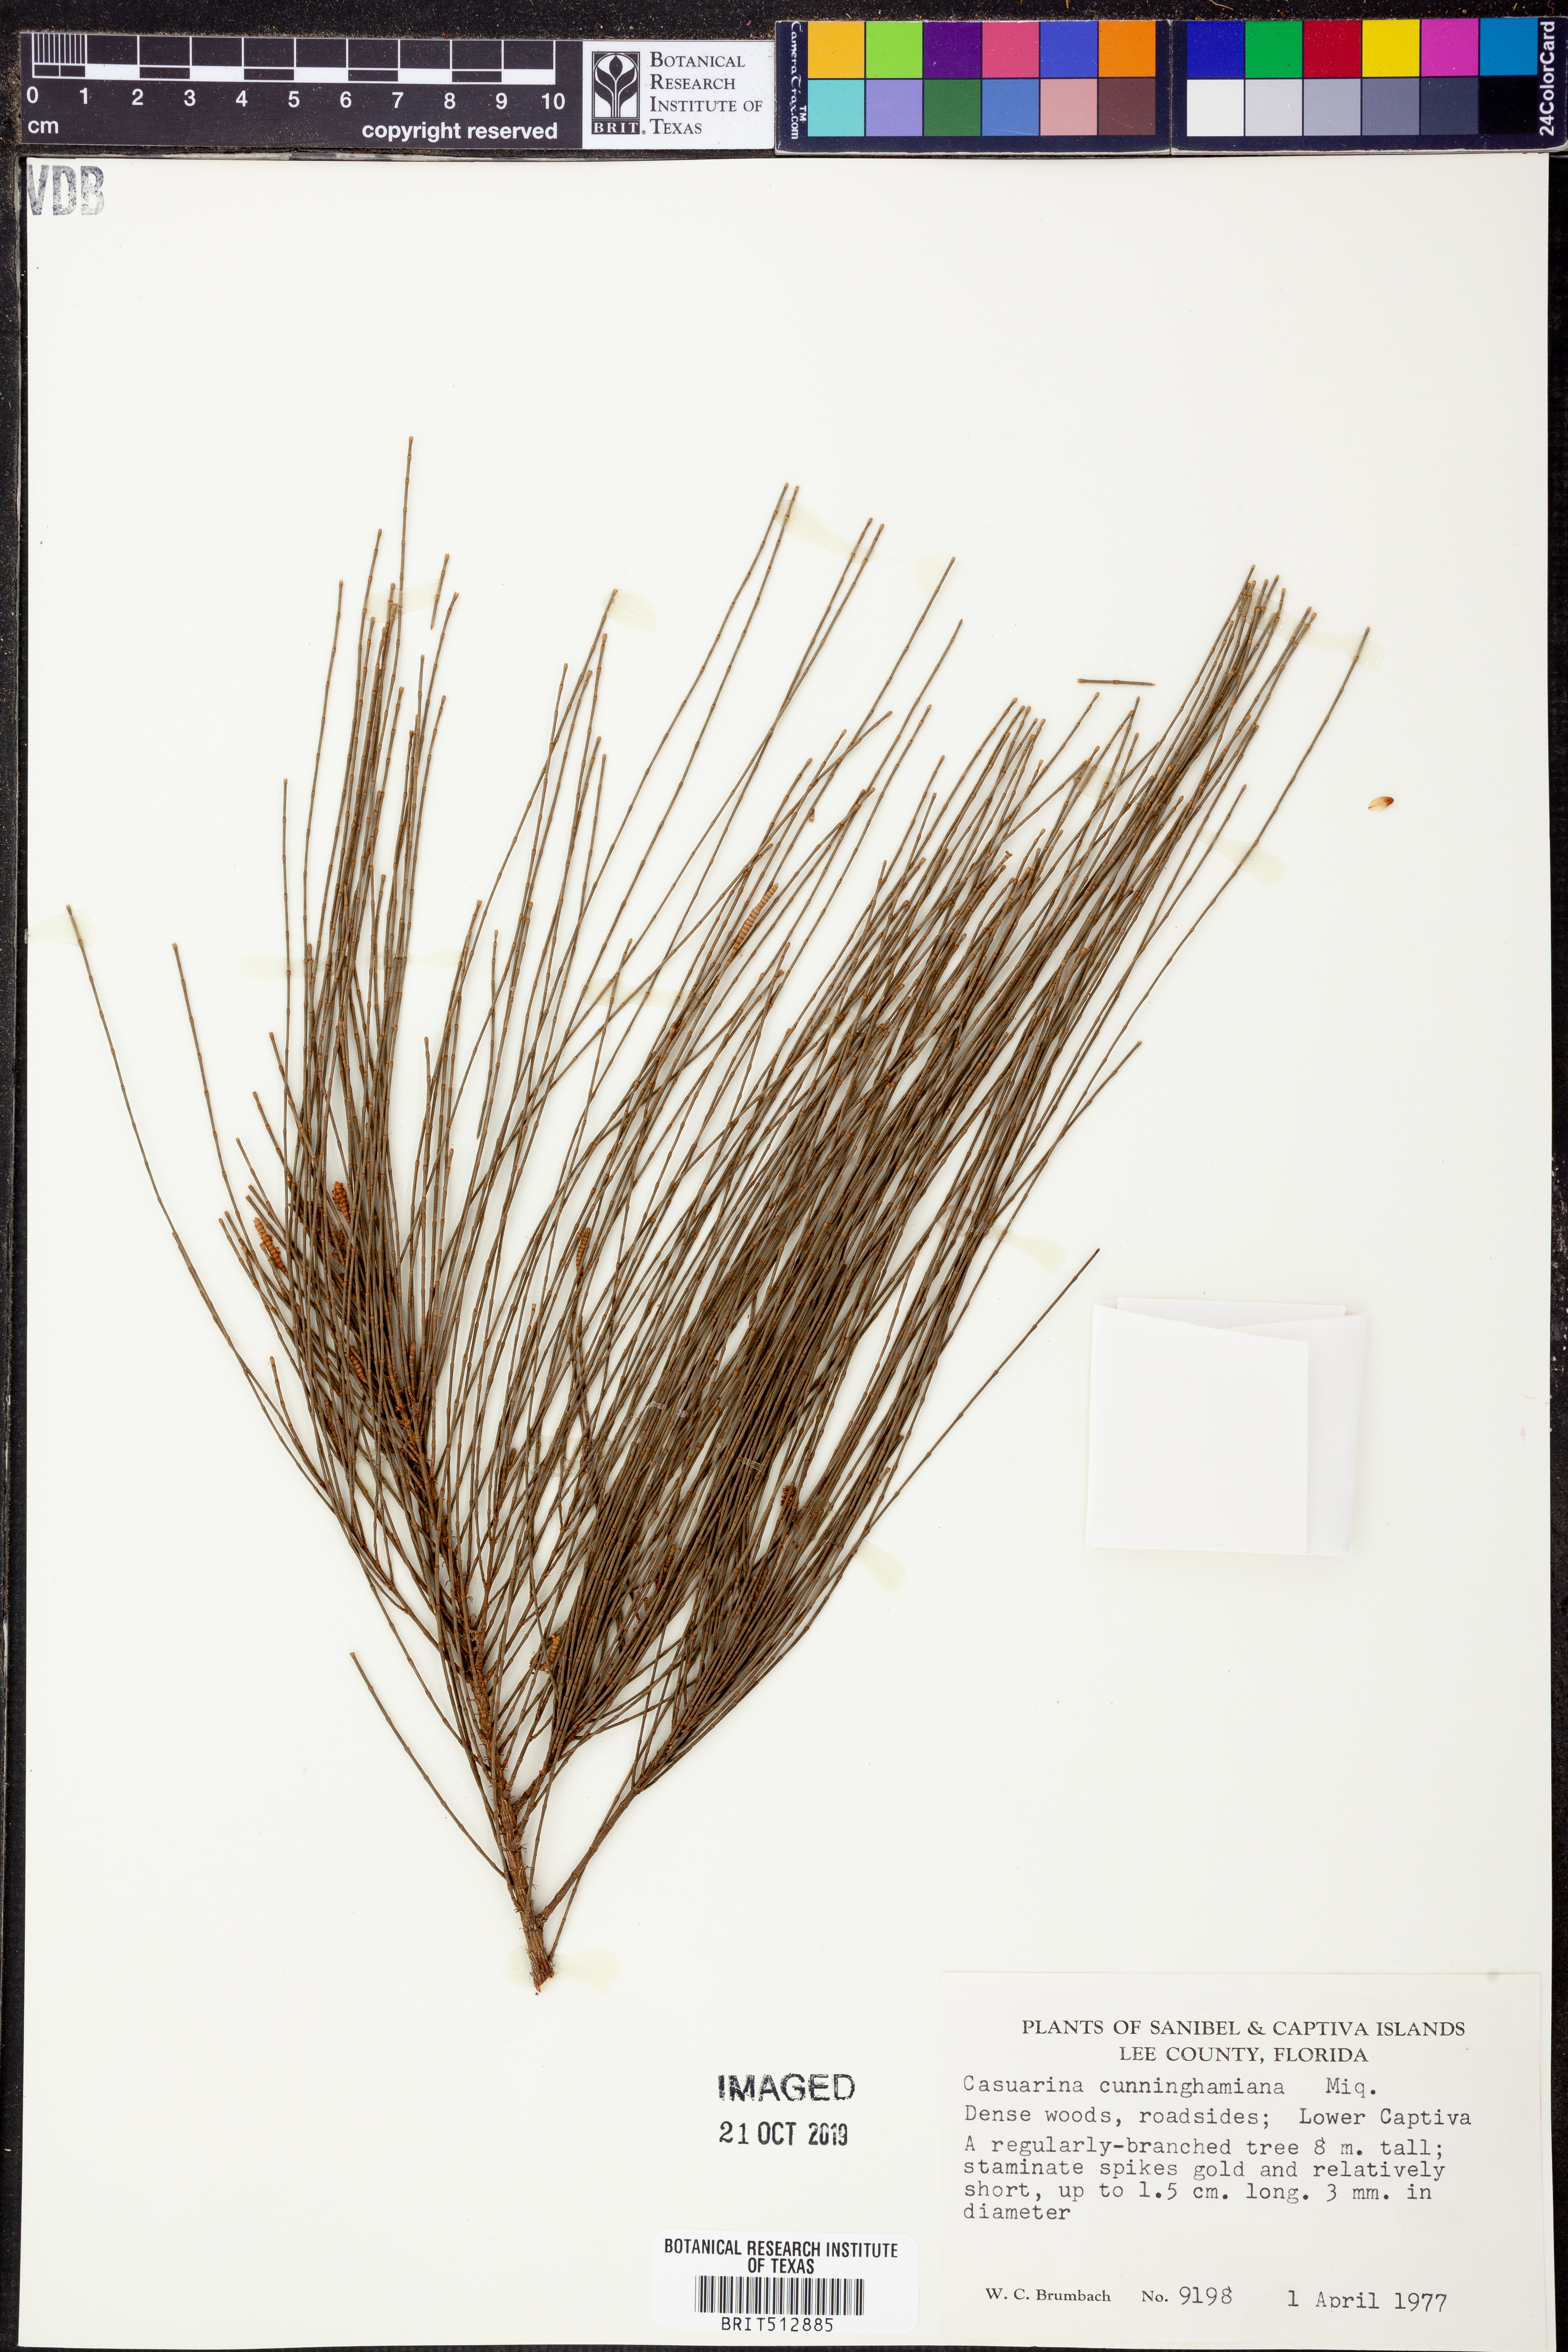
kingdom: Plantae
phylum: Tracheophyta
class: Magnoliopsida
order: Fagales
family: Casuarinaceae
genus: Casuarina
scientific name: Casuarina cunninghamiana
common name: River sheoak
